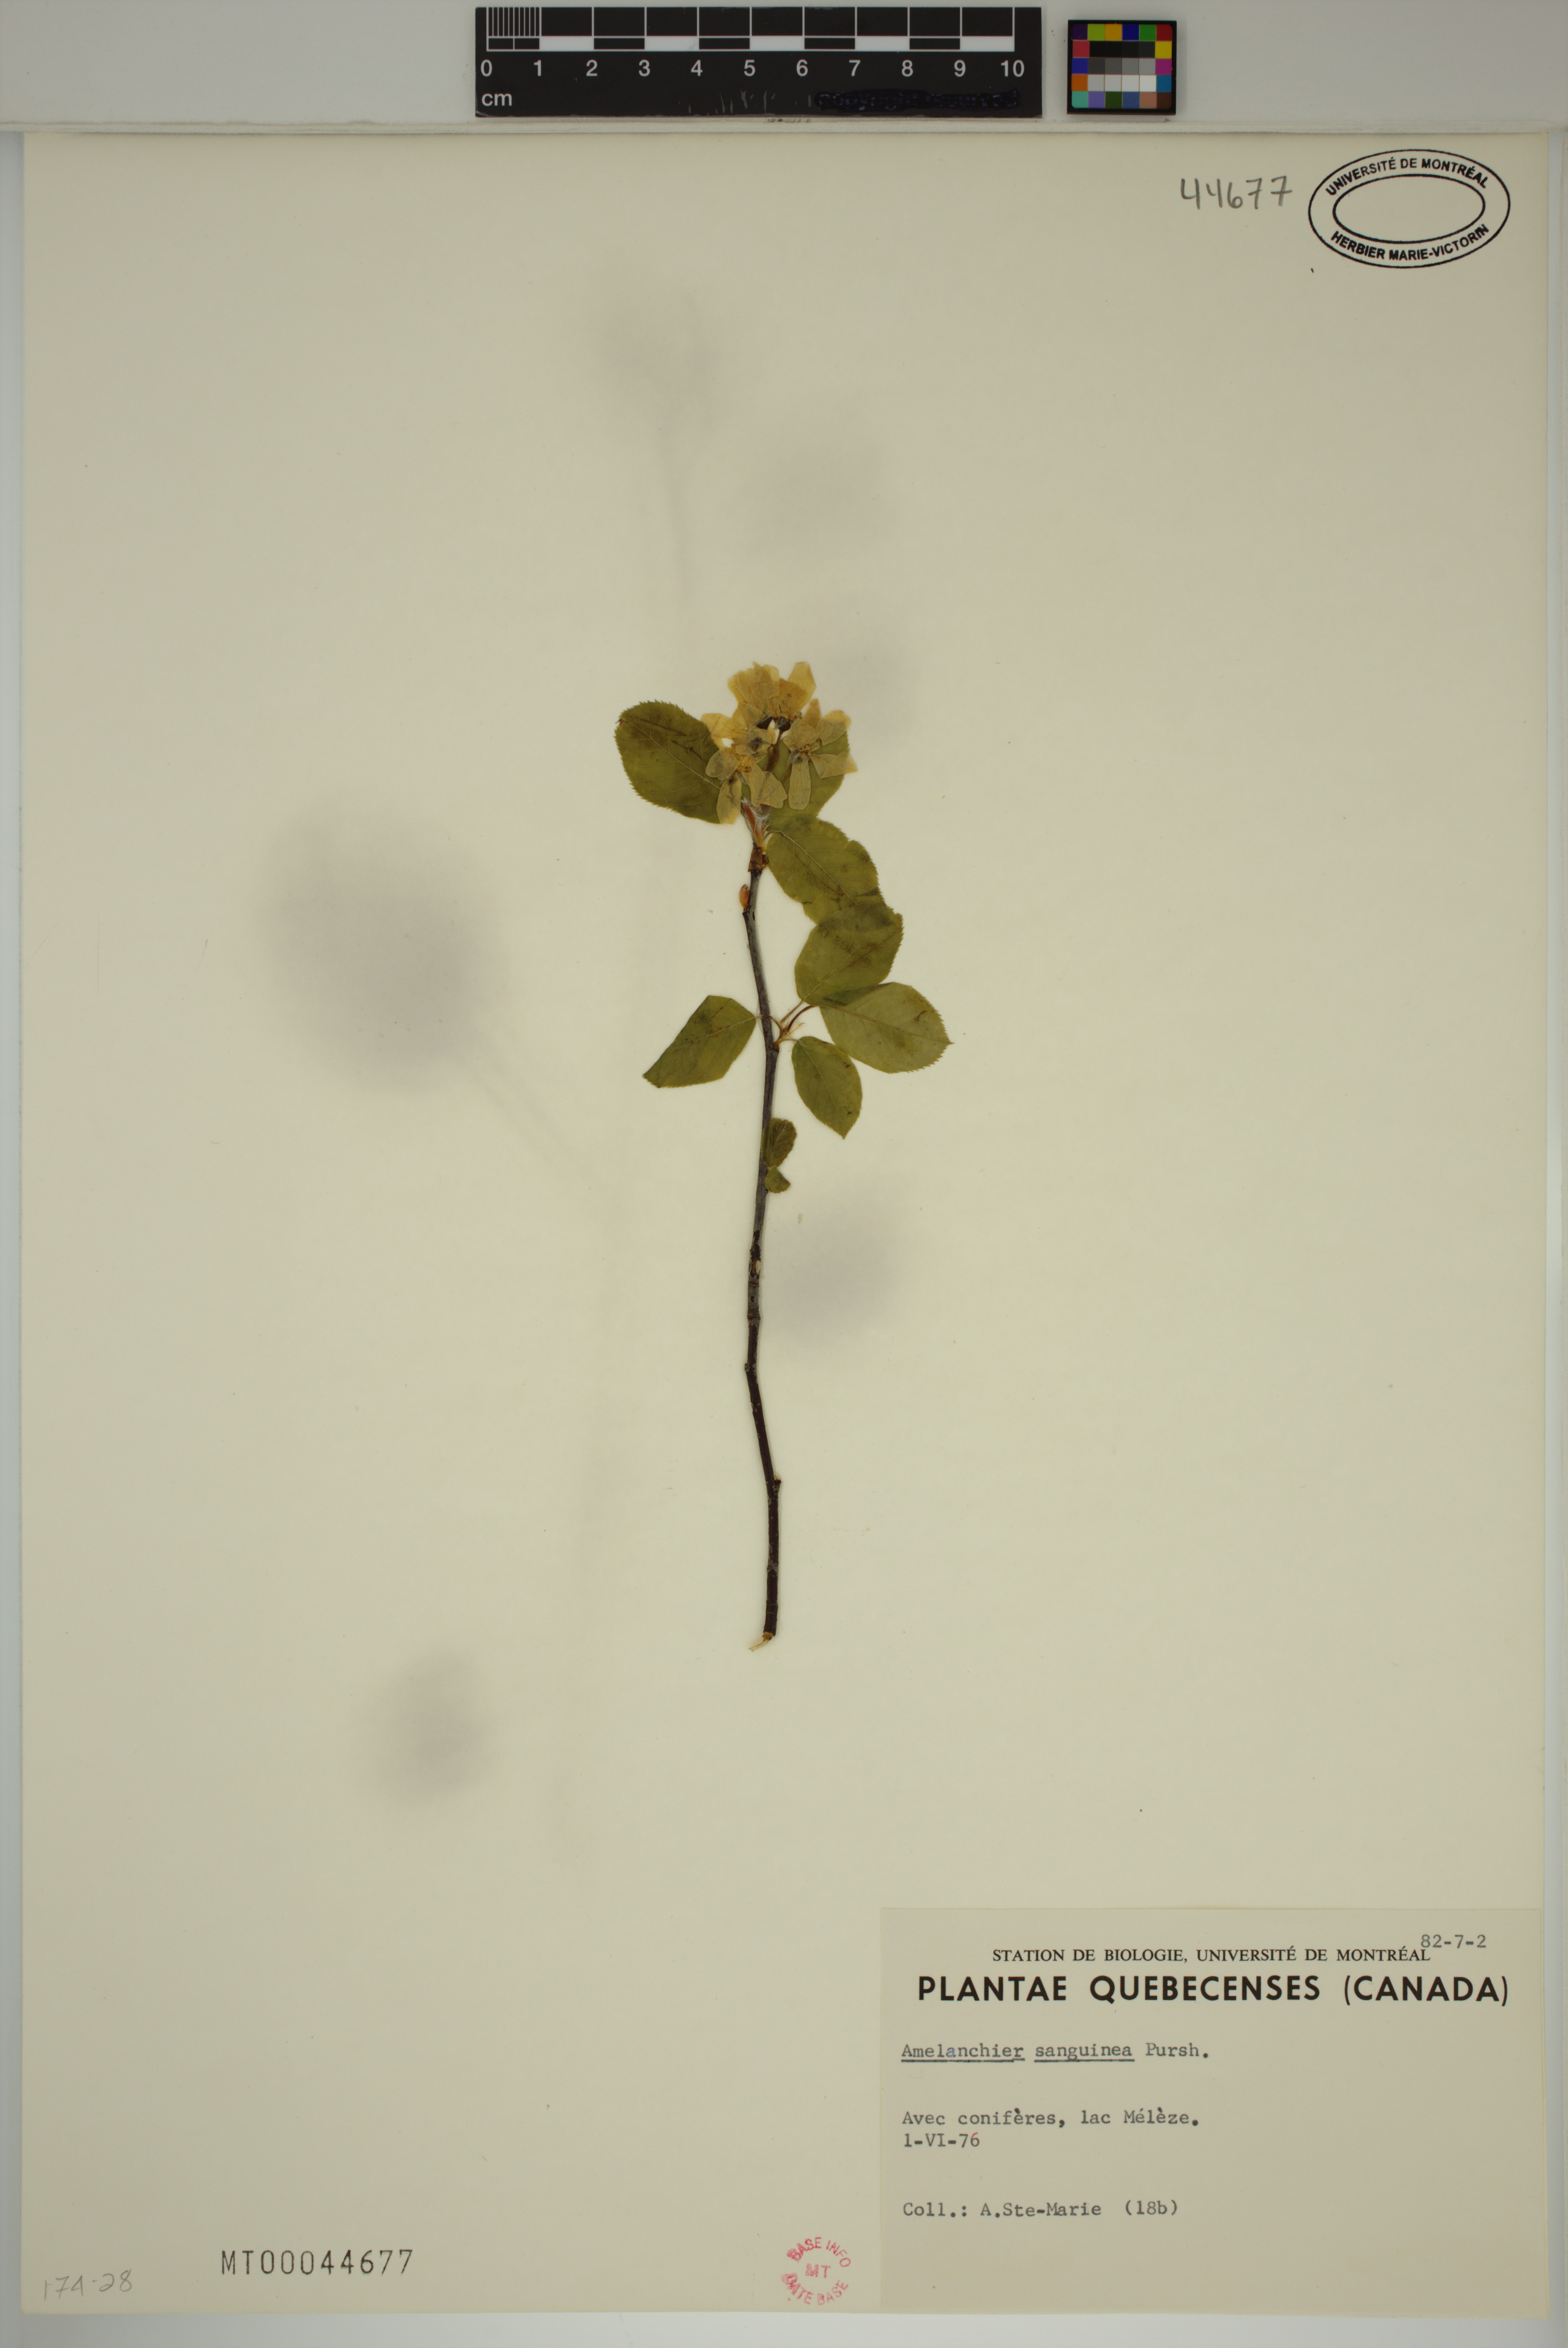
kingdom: Plantae
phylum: Tracheophyta
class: Magnoliopsida
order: Rosales
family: Rosaceae
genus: Amelanchier
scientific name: Amelanchier sanguinea
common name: Huron serviceberry
